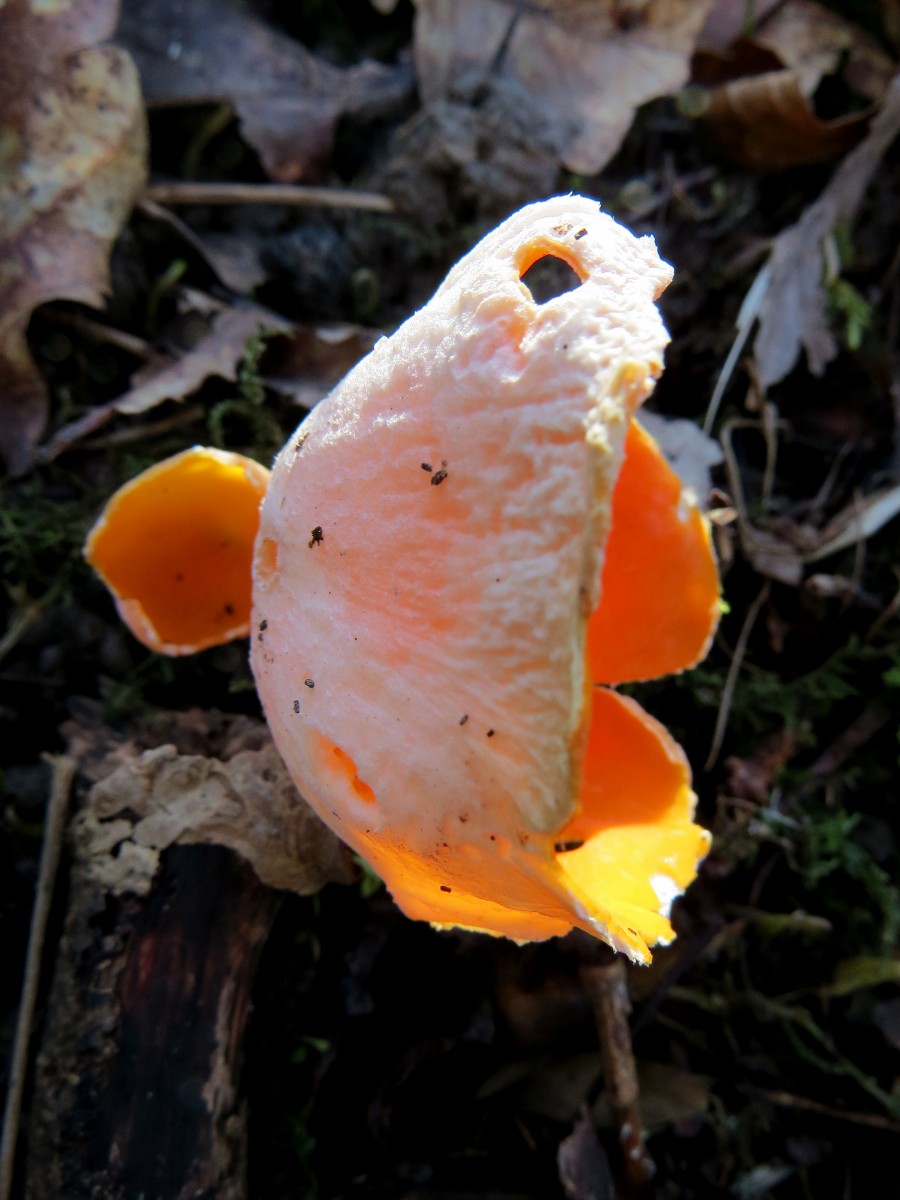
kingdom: Fungi
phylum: Ascomycota
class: Pezizomycetes
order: Pezizales
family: Sarcoscyphaceae
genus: Sarcoscypha
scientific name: Sarcoscypha
